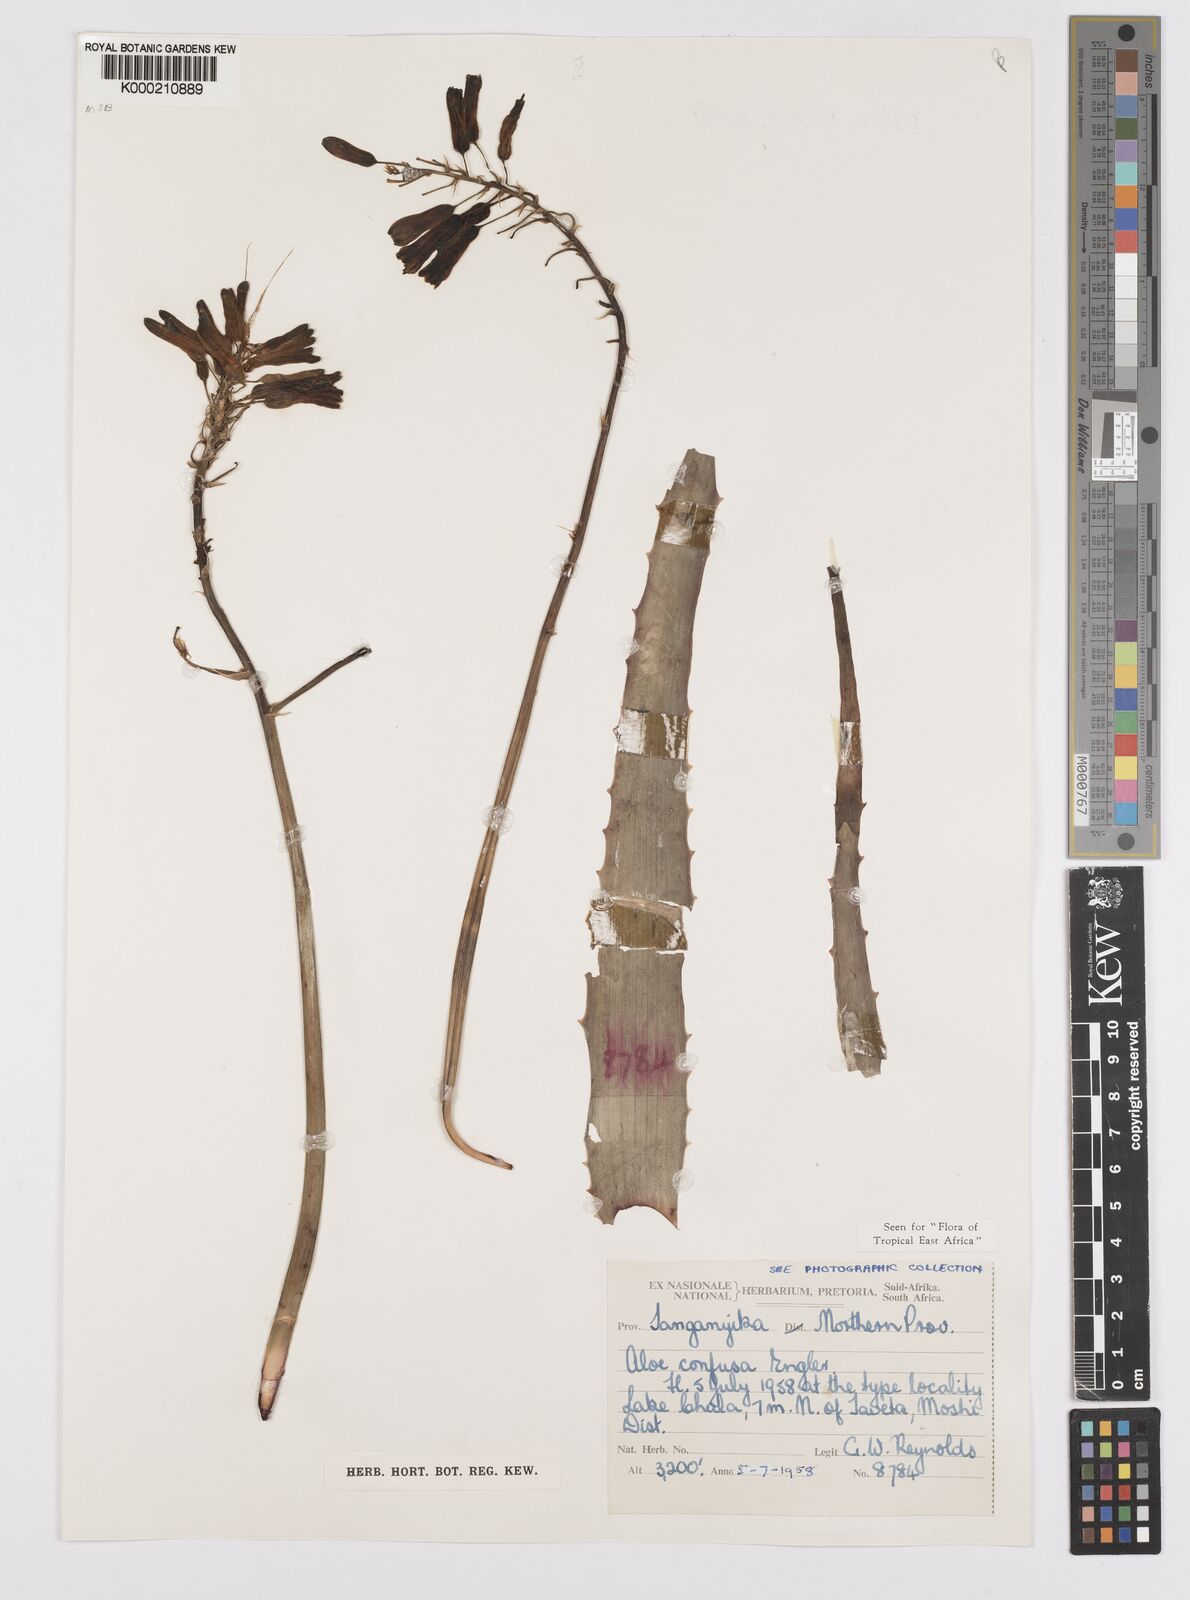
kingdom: Plantae
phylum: Tracheophyta
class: Liliopsida
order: Asparagales
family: Asphodelaceae
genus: Aloe
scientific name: Aloe confusa
